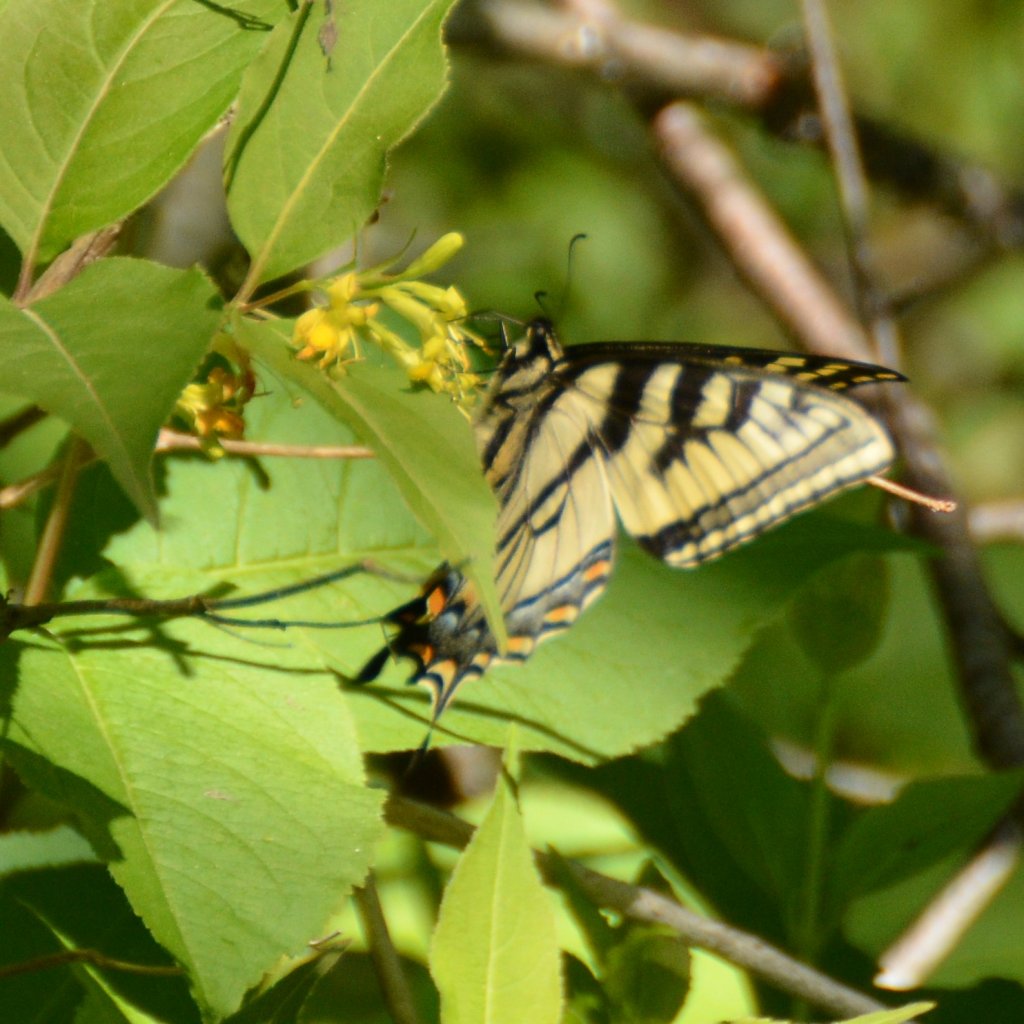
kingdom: Animalia
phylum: Arthropoda
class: Insecta
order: Lepidoptera
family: Papilionidae
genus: Pterourus
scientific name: Pterourus canadensis
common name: Canadian Tiger Swallowtail
